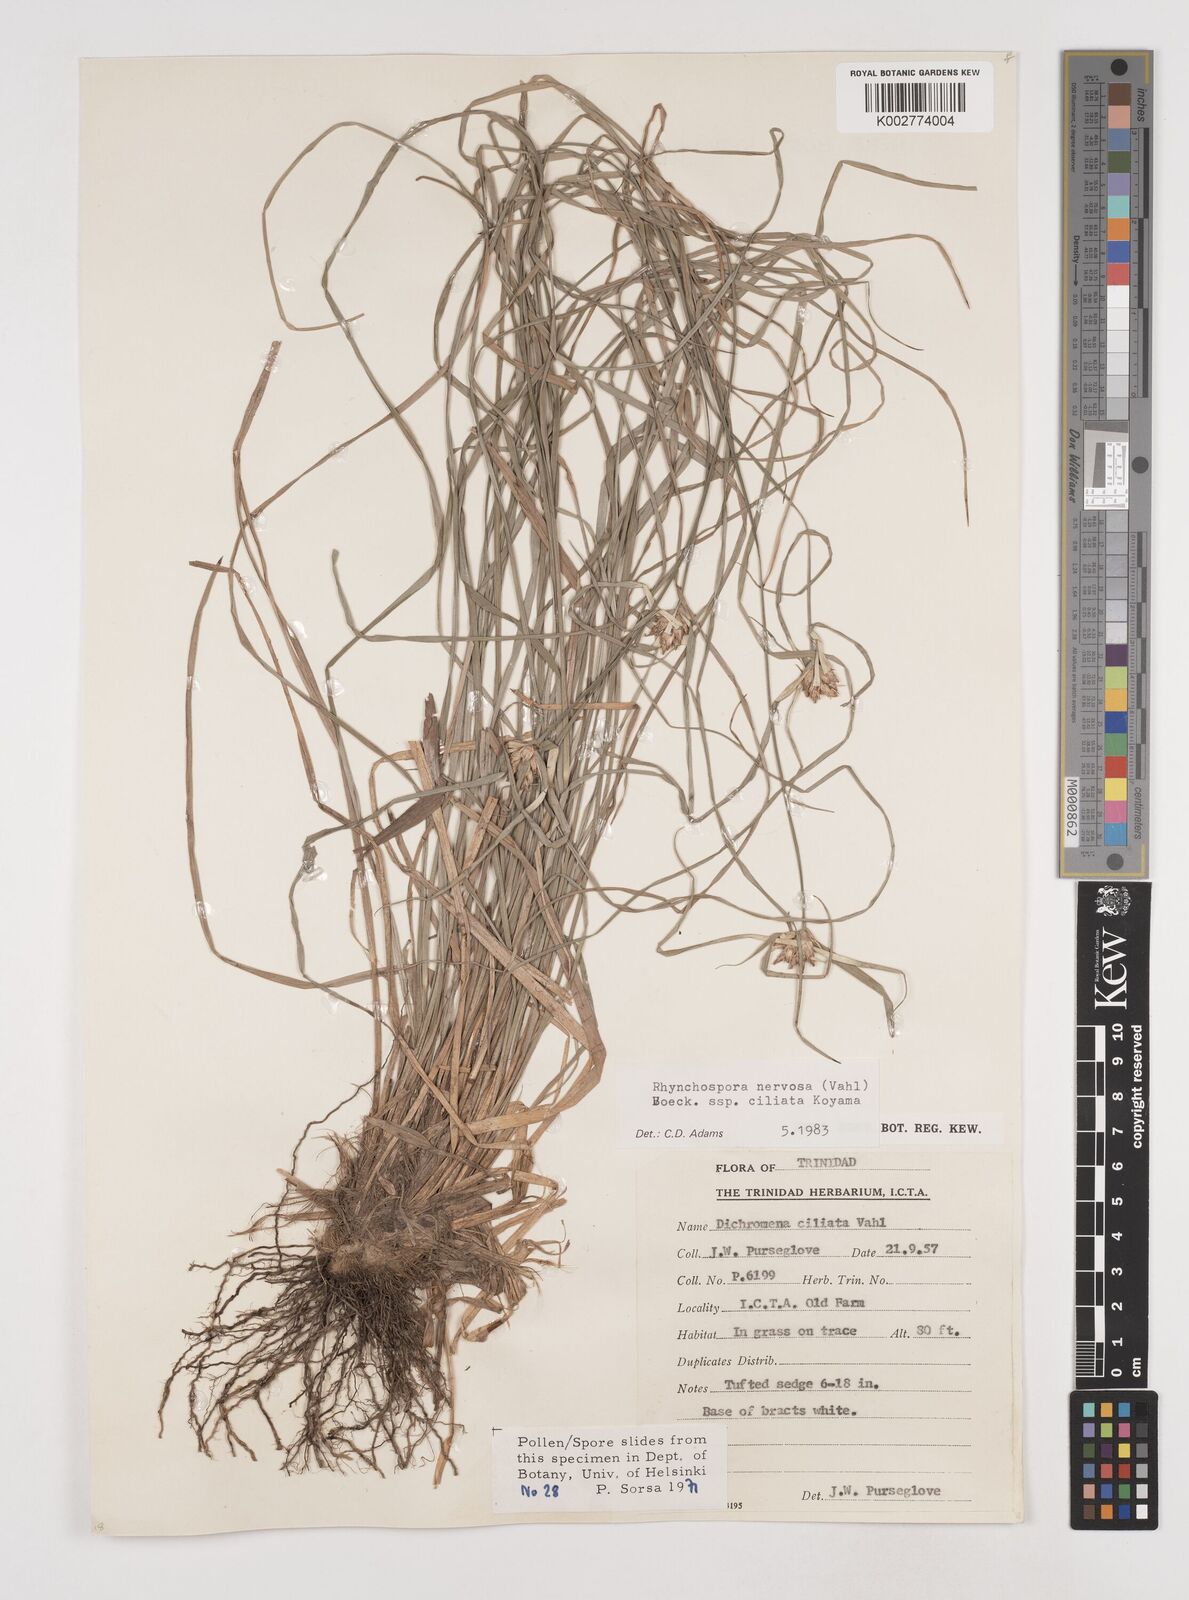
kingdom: Plantae
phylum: Tracheophyta
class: Liliopsida
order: Poales
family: Cyperaceae
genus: Rhynchospora
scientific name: Rhynchospora pura
